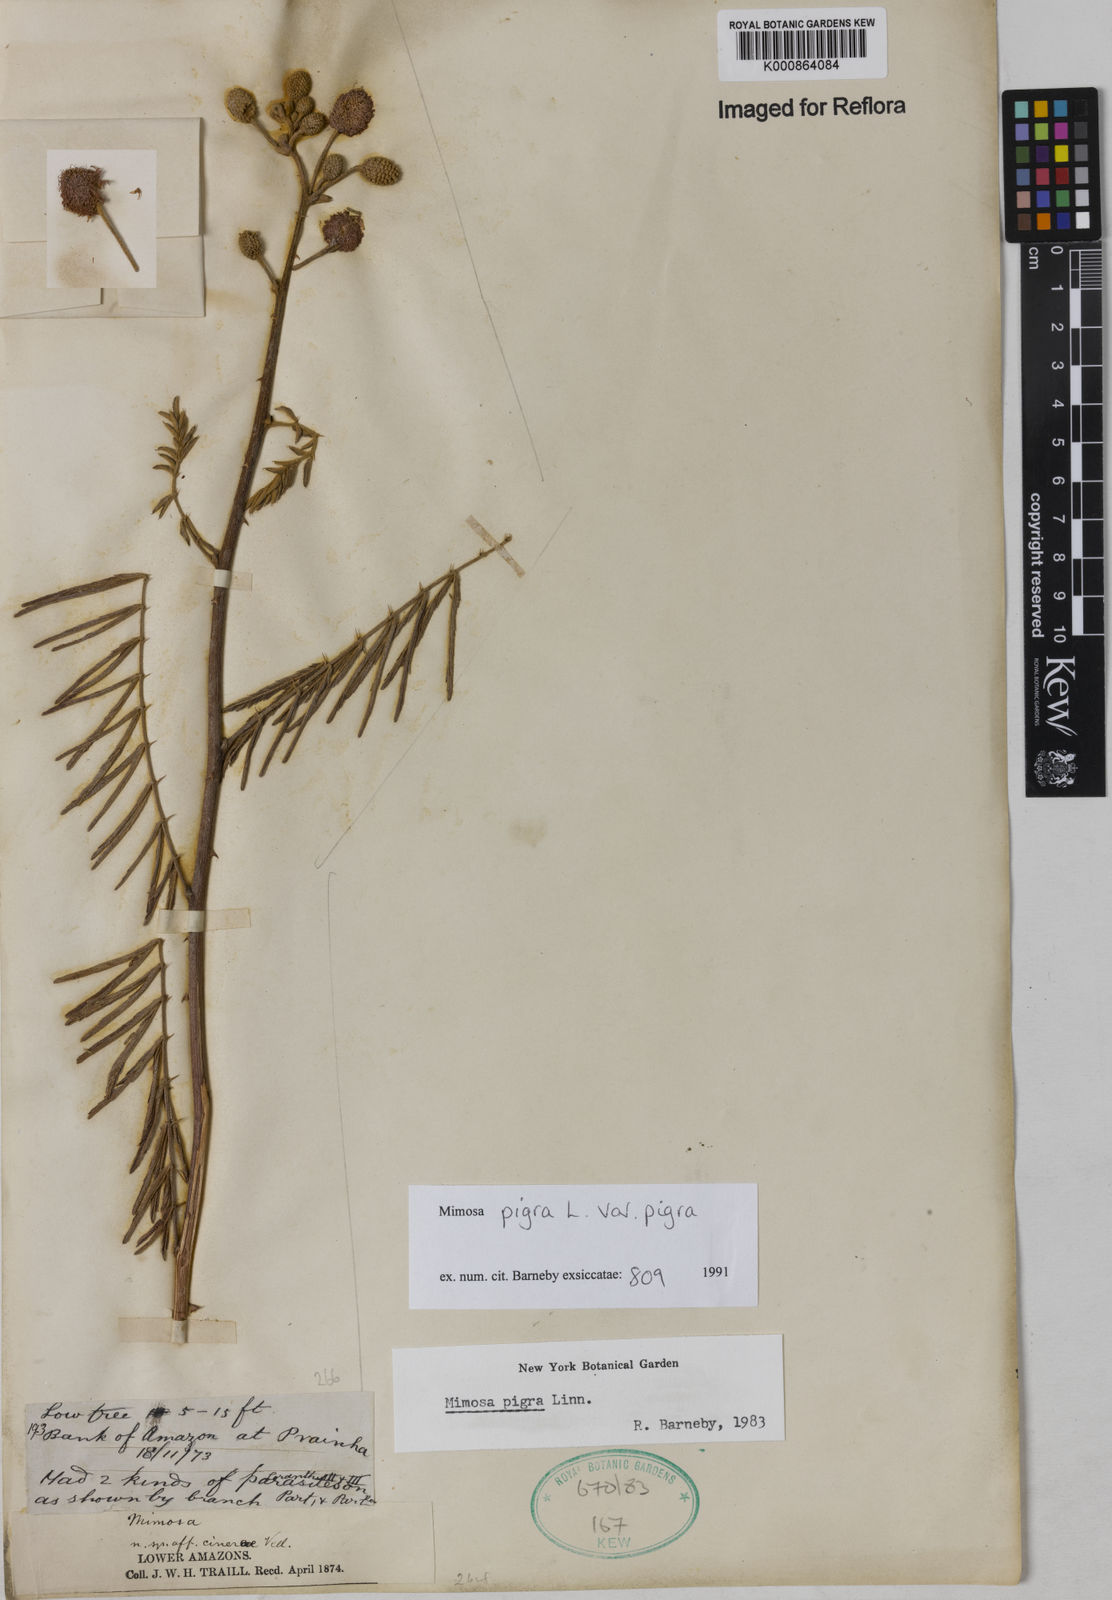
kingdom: Plantae
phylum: Tracheophyta
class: Magnoliopsida
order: Fabales
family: Fabaceae
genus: Mimosa
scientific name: Mimosa pigra
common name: Black mimosa
